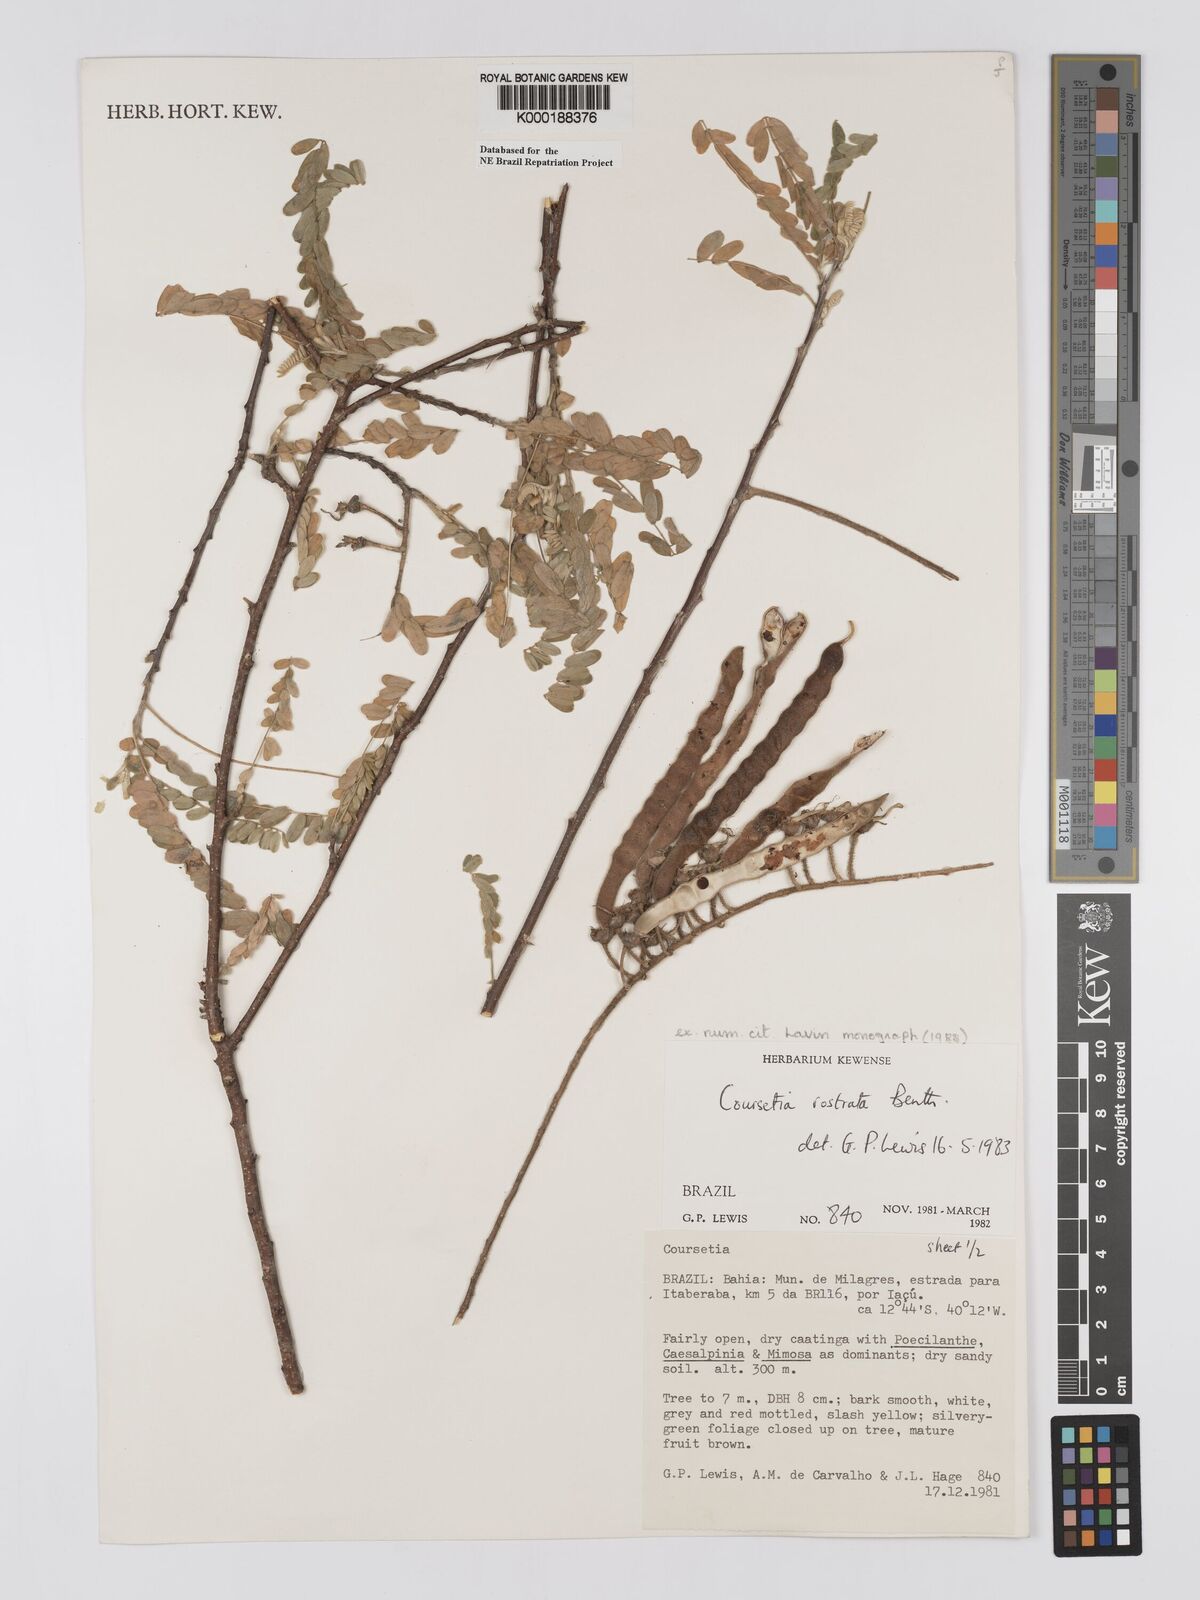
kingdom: Plantae
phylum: Tracheophyta
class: Magnoliopsida
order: Fabales
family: Fabaceae
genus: Coursetia
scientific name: Coursetia rostrata
